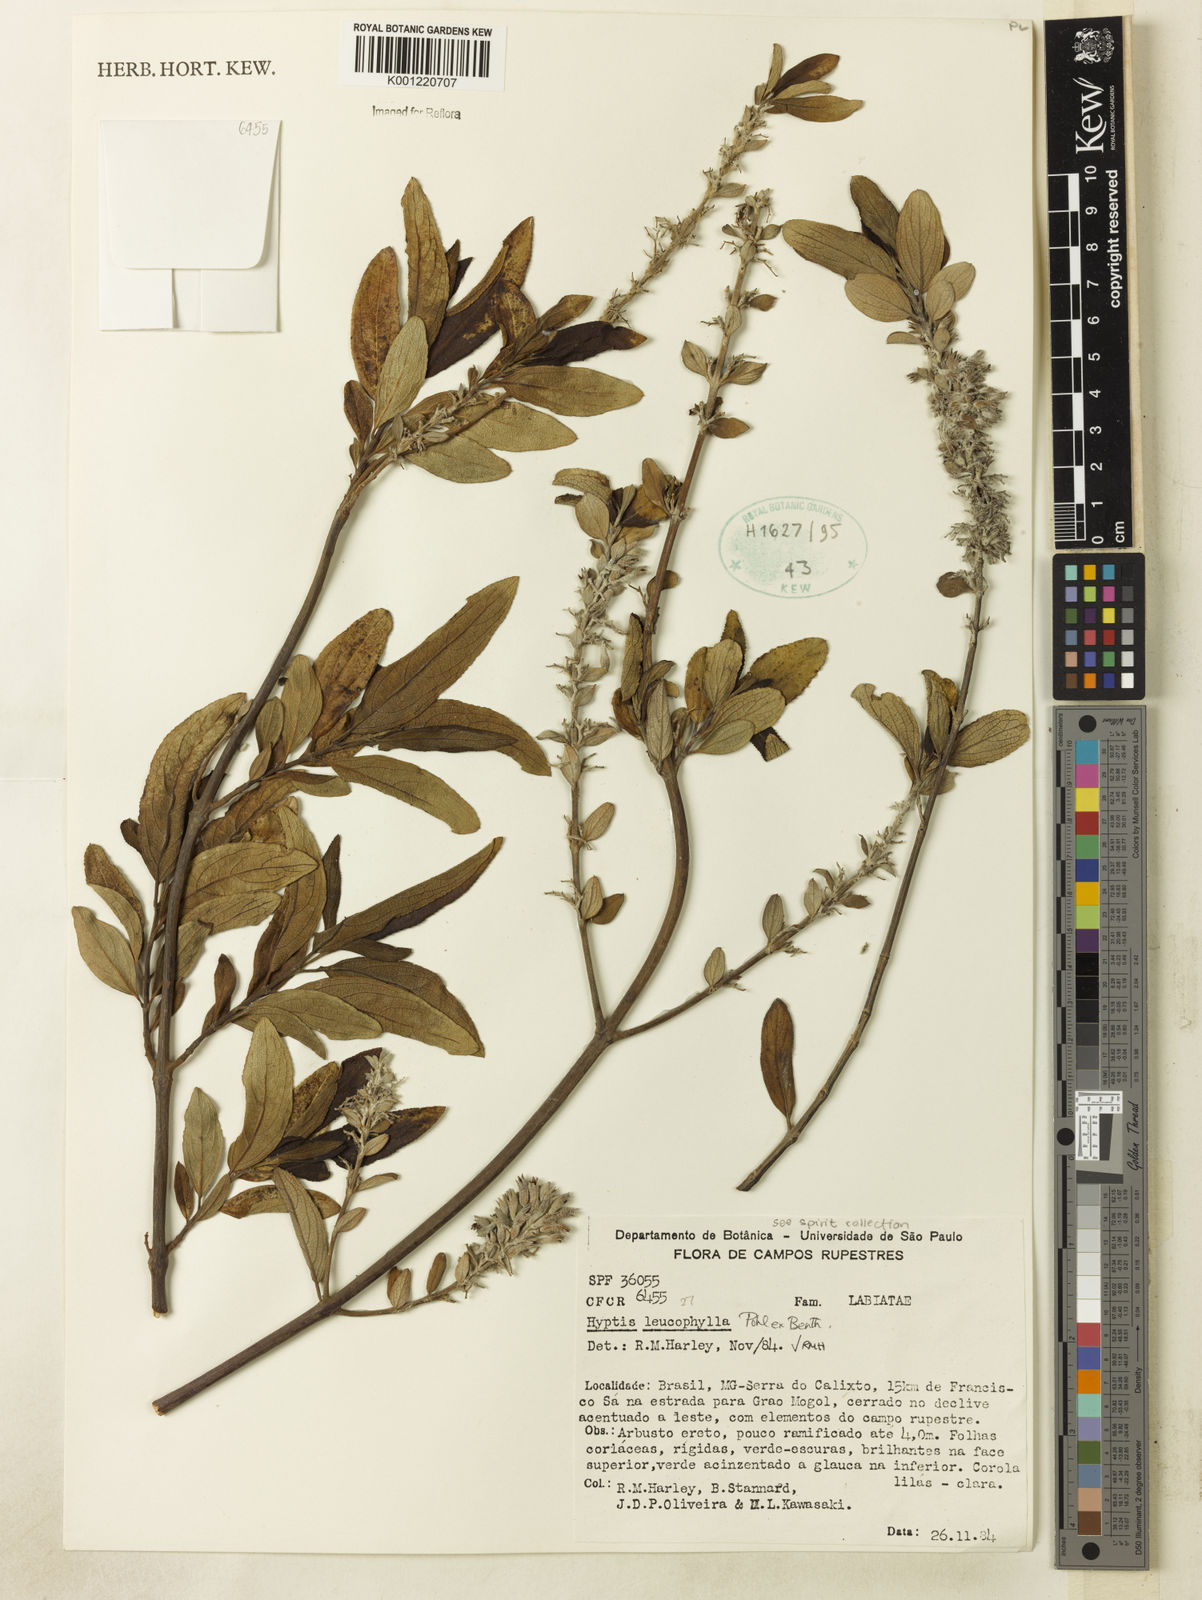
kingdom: Plantae
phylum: Tracheophyta
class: Magnoliopsida
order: Lamiales
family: Lamiaceae
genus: Hyptidendron
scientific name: Hyptidendron leucophyllum
